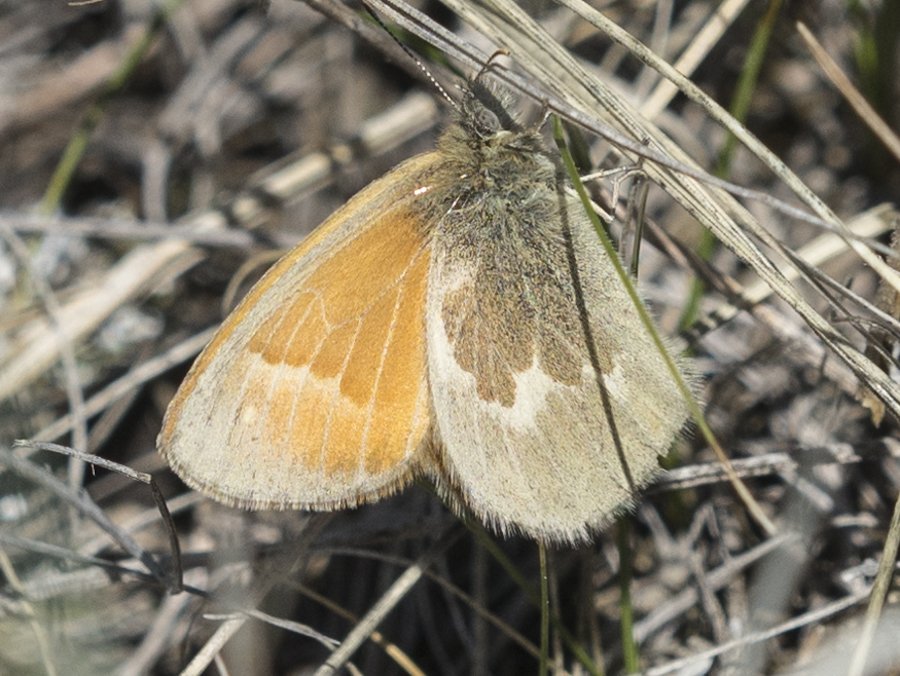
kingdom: Animalia
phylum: Arthropoda
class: Insecta
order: Lepidoptera
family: Nymphalidae
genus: Coenonympha
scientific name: Coenonympha tullia
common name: Large Heath
